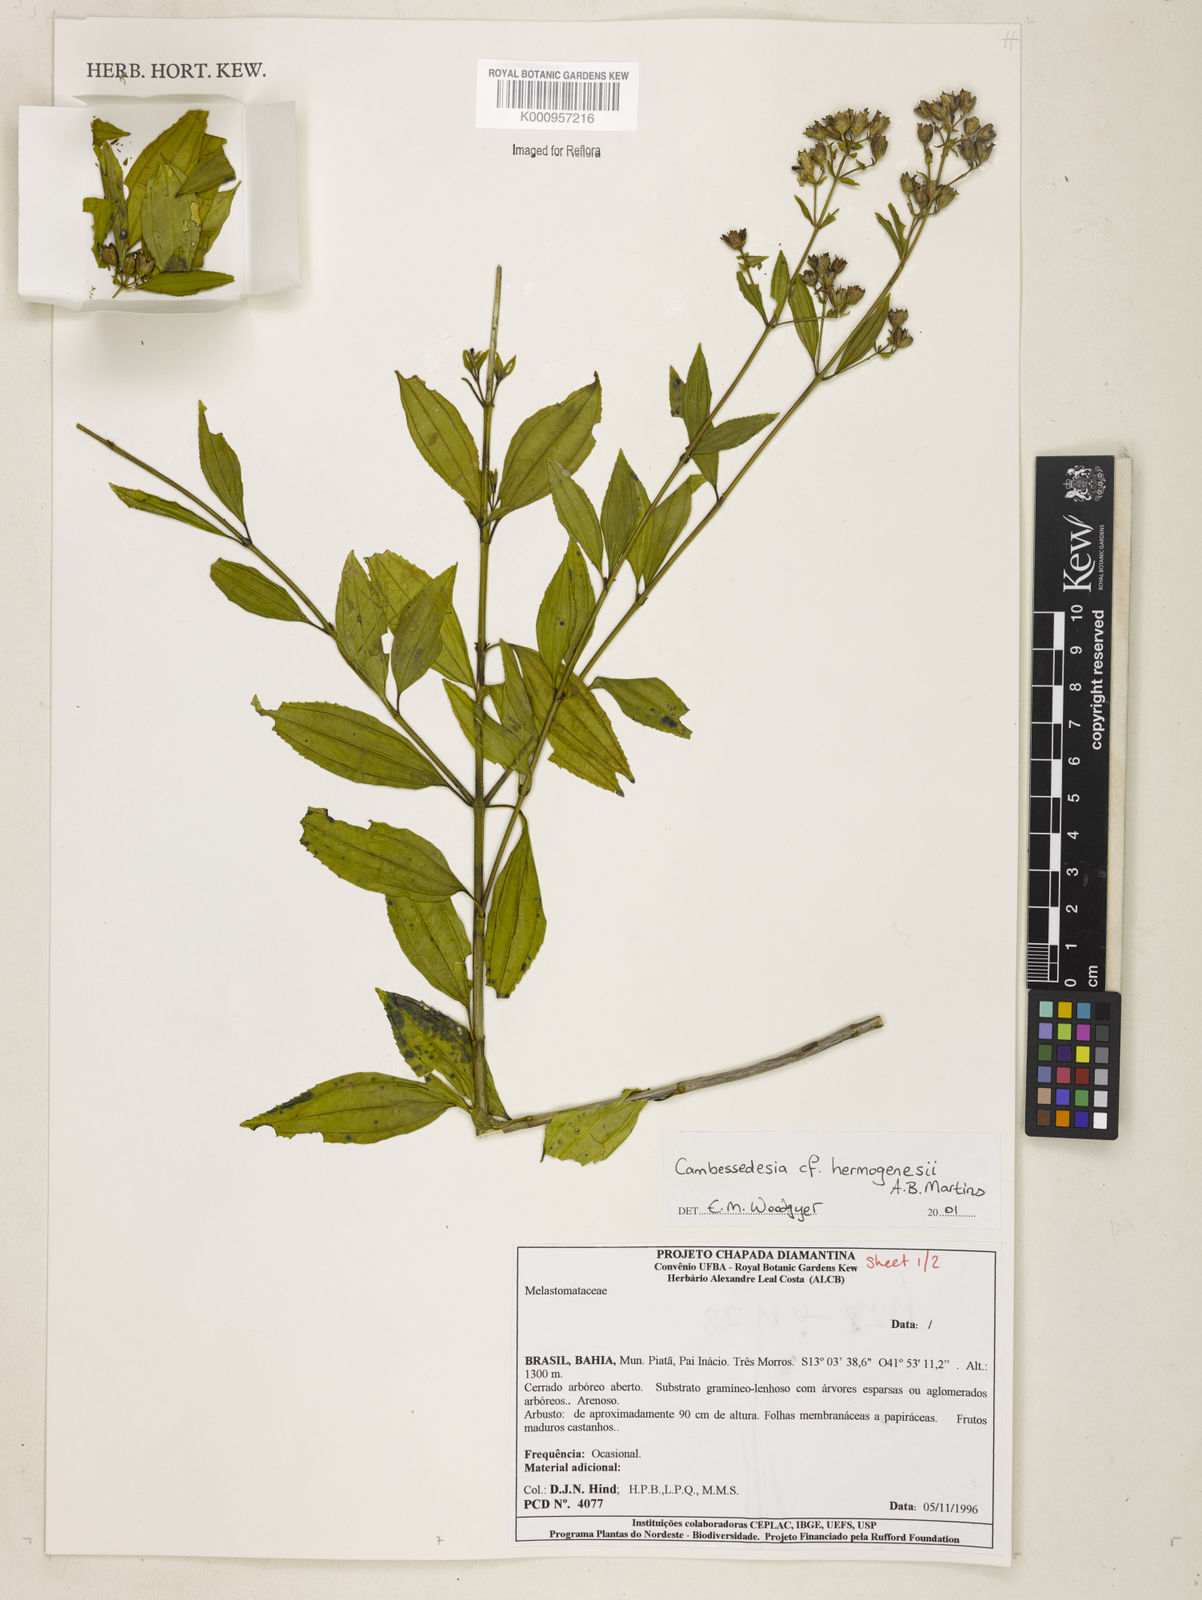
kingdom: Plantae
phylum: Tracheophyta
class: Magnoliopsida
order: Myrtales
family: Melastomataceae
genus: Cambessedesia
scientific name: Cambessedesia hermogenesii
